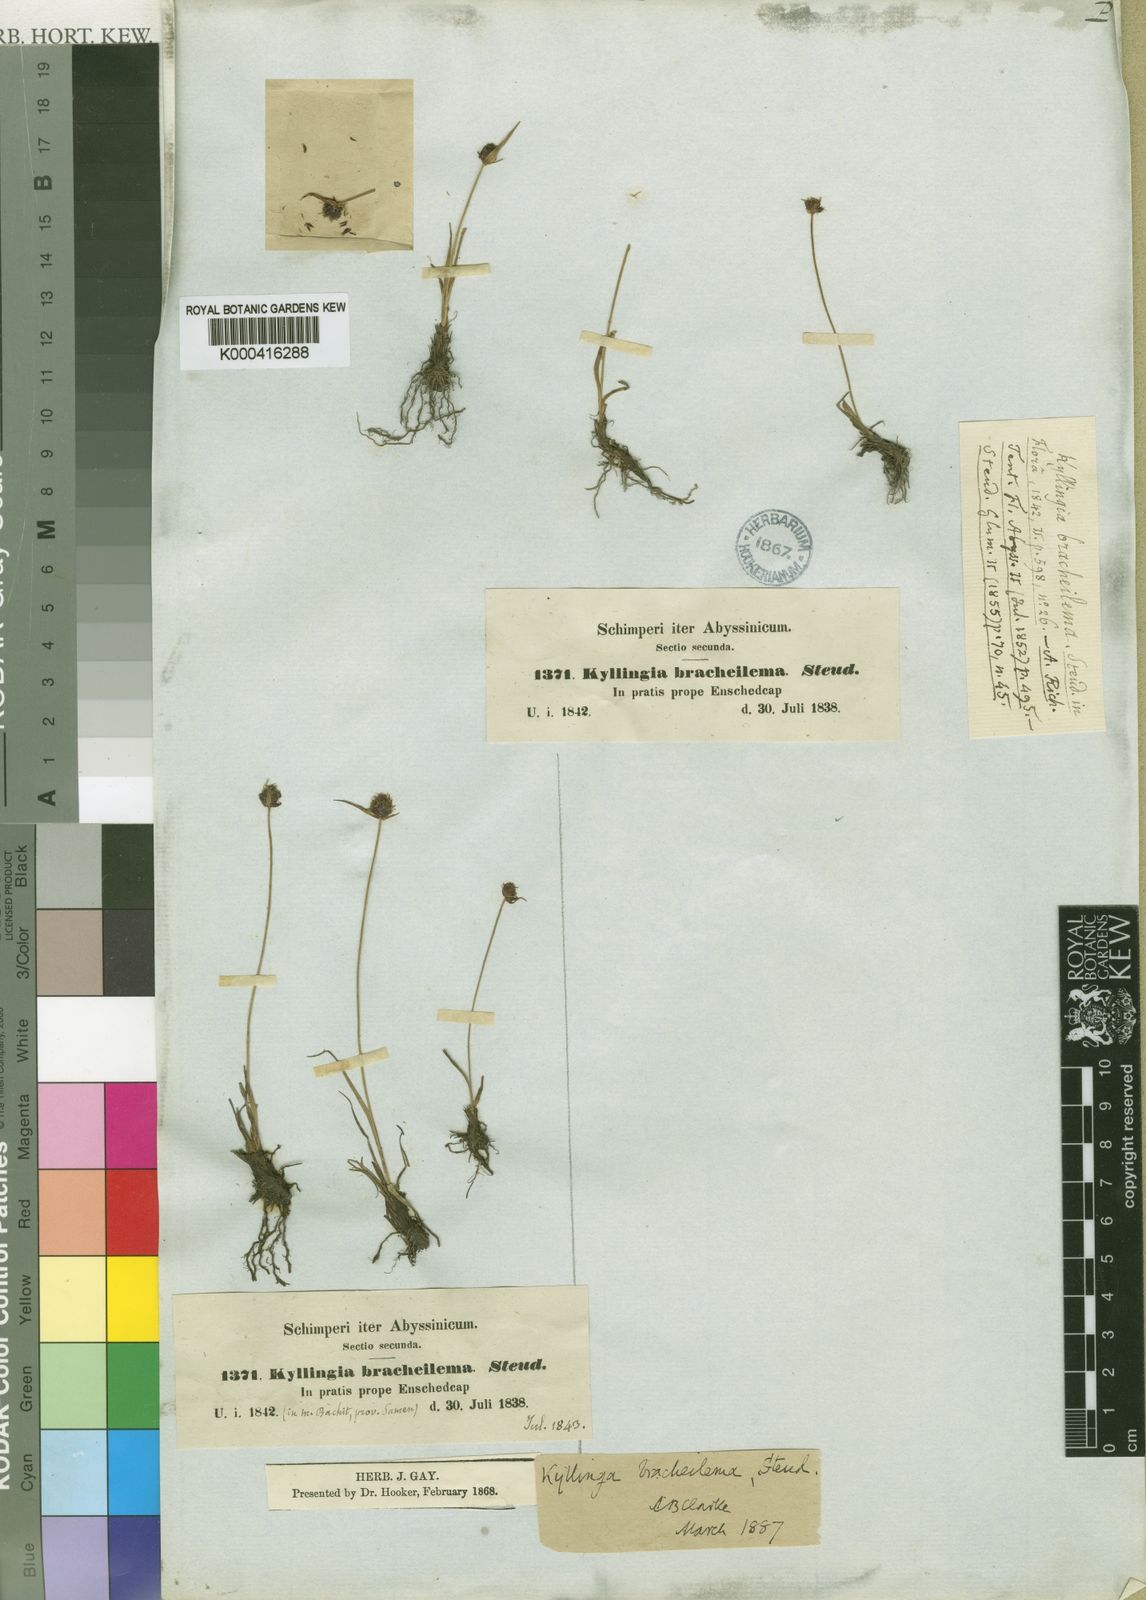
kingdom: Plantae
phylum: Tracheophyta
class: Liliopsida
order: Poales
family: Cyperaceae
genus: Cyperus
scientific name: Cyperus bracheilema
